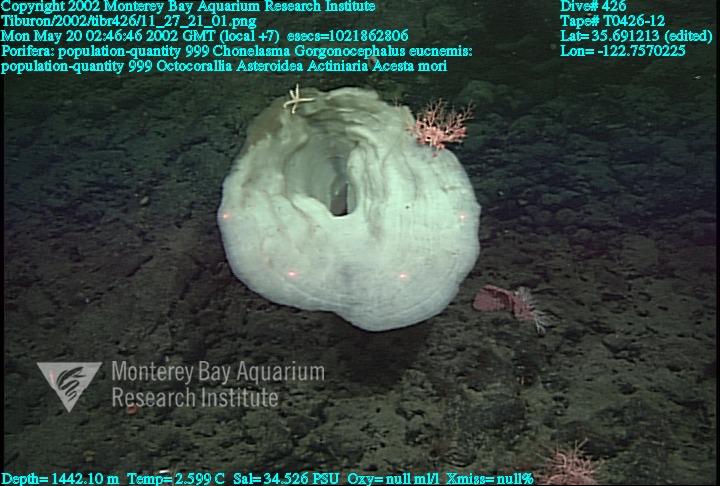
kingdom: Animalia
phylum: Porifera
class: Hexactinellida
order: Sceptrulophora
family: Euretidae
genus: Chonelasma
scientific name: Chonelasma
